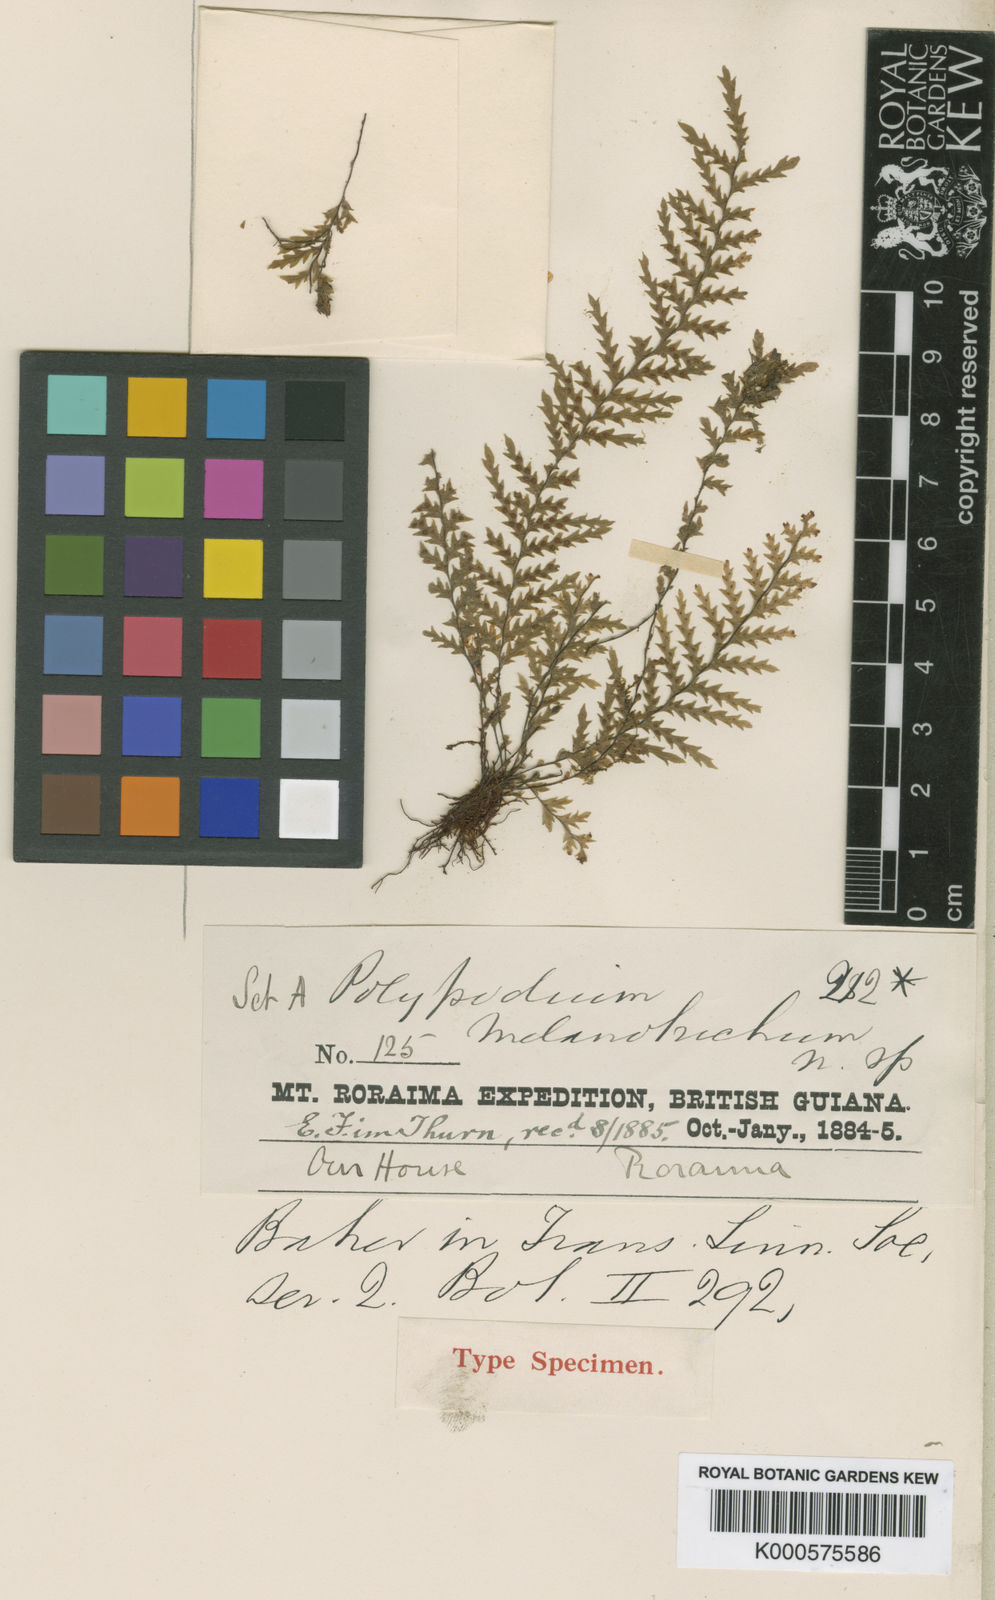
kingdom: Plantae
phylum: Tracheophyta
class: Polypodiopsida
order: Polypodiales
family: Polypodiaceae
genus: Lellingeria
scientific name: Lellingeria melanotrichia
